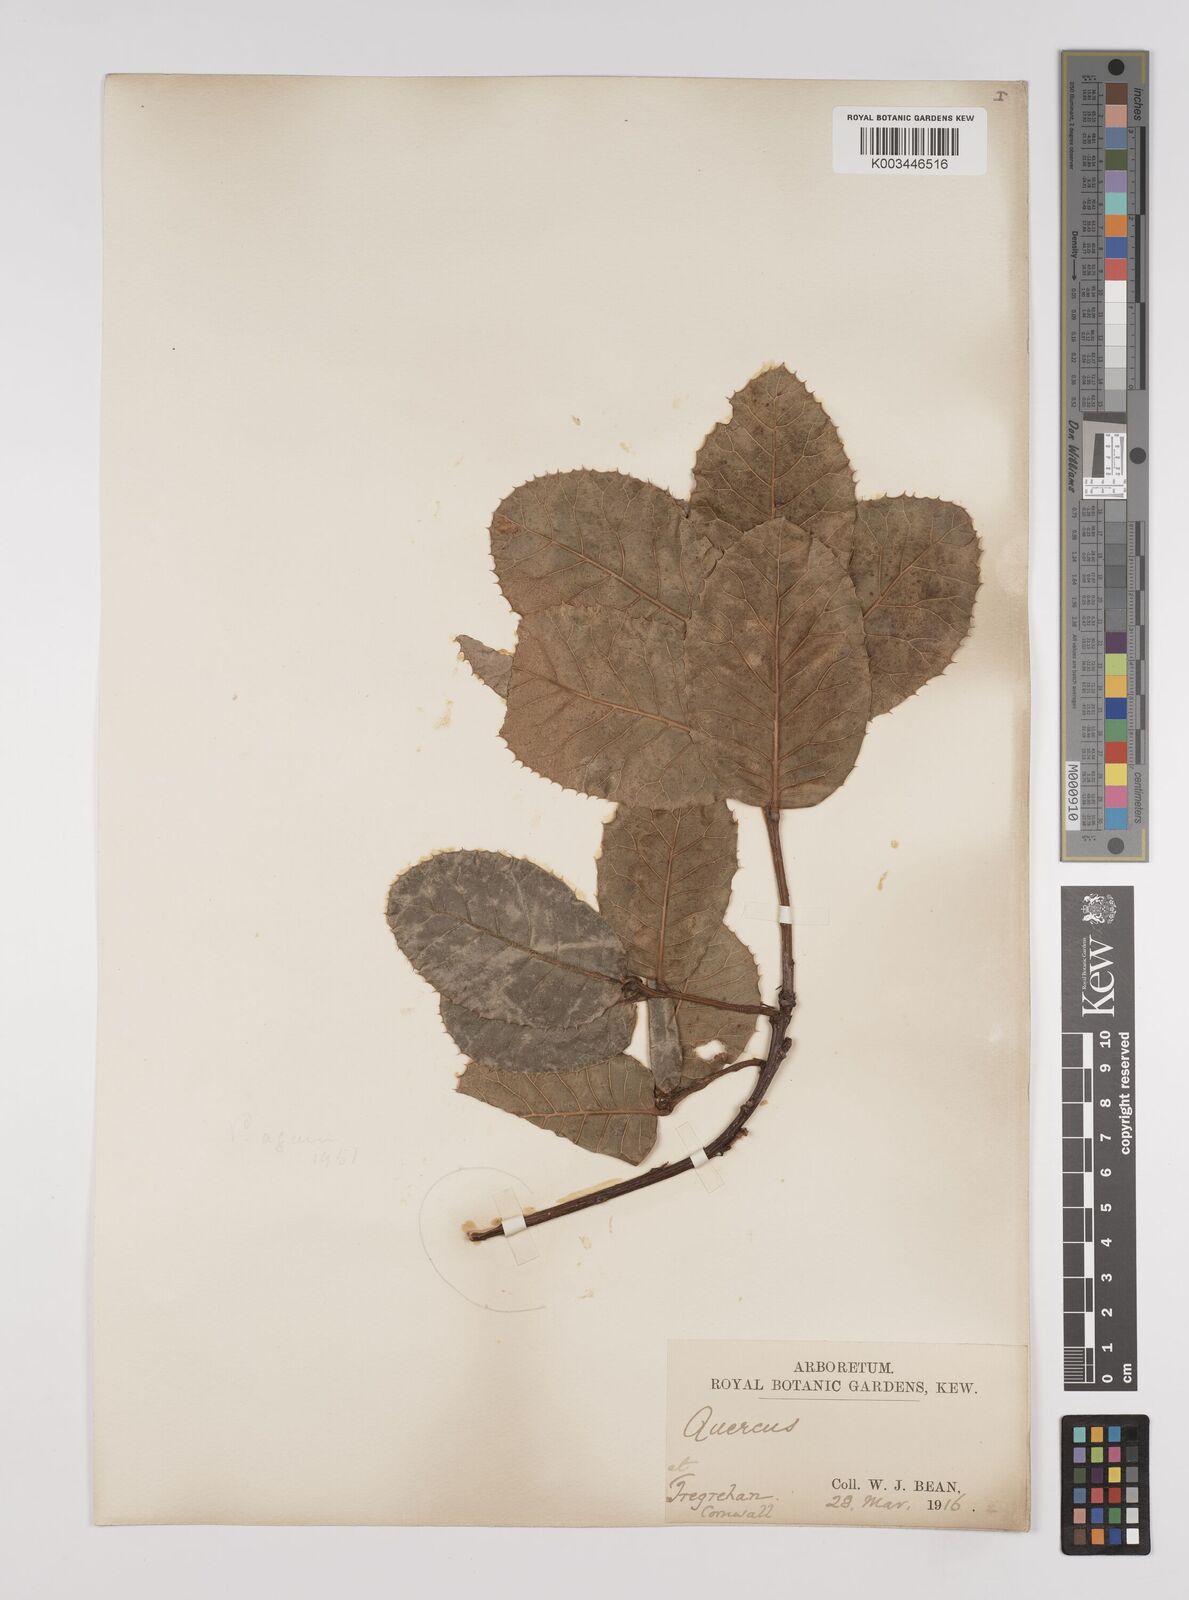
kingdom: Plantae
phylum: Tracheophyta
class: Magnoliopsida
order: Fagales
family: Fagaceae
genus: Quercus
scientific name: Quercus semecarpifolia
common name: Brown oak
